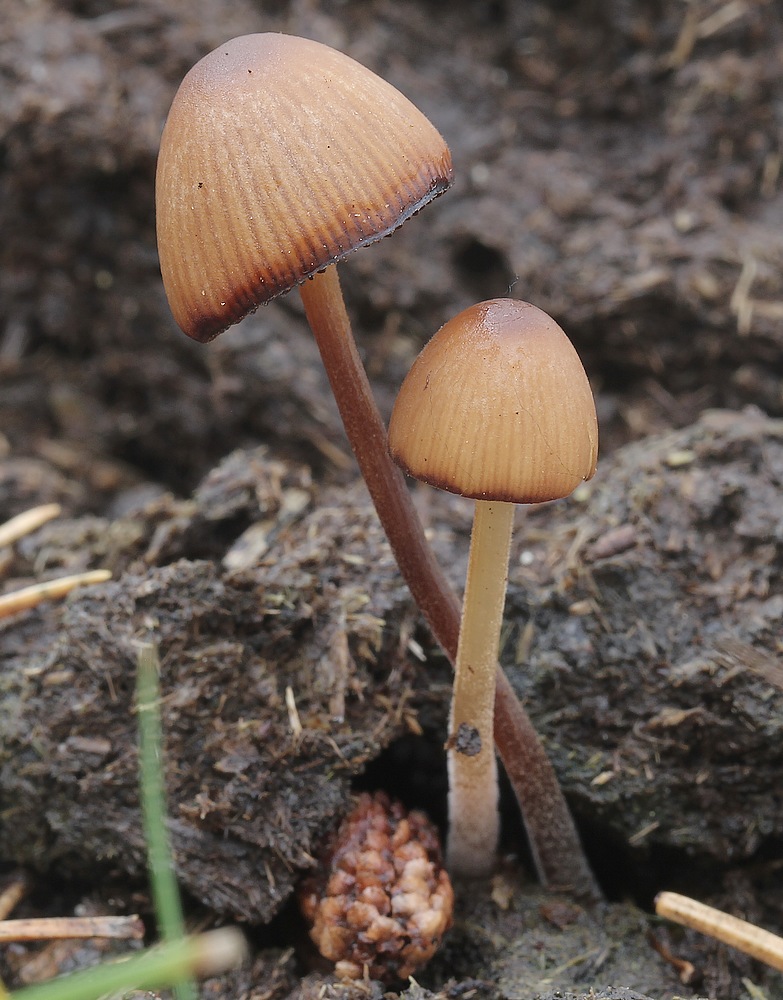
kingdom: Fungi
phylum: Basidiomycota
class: Agaricomycetes
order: Agaricales
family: Bolbitiaceae
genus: Conocybe
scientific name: Conocybe
